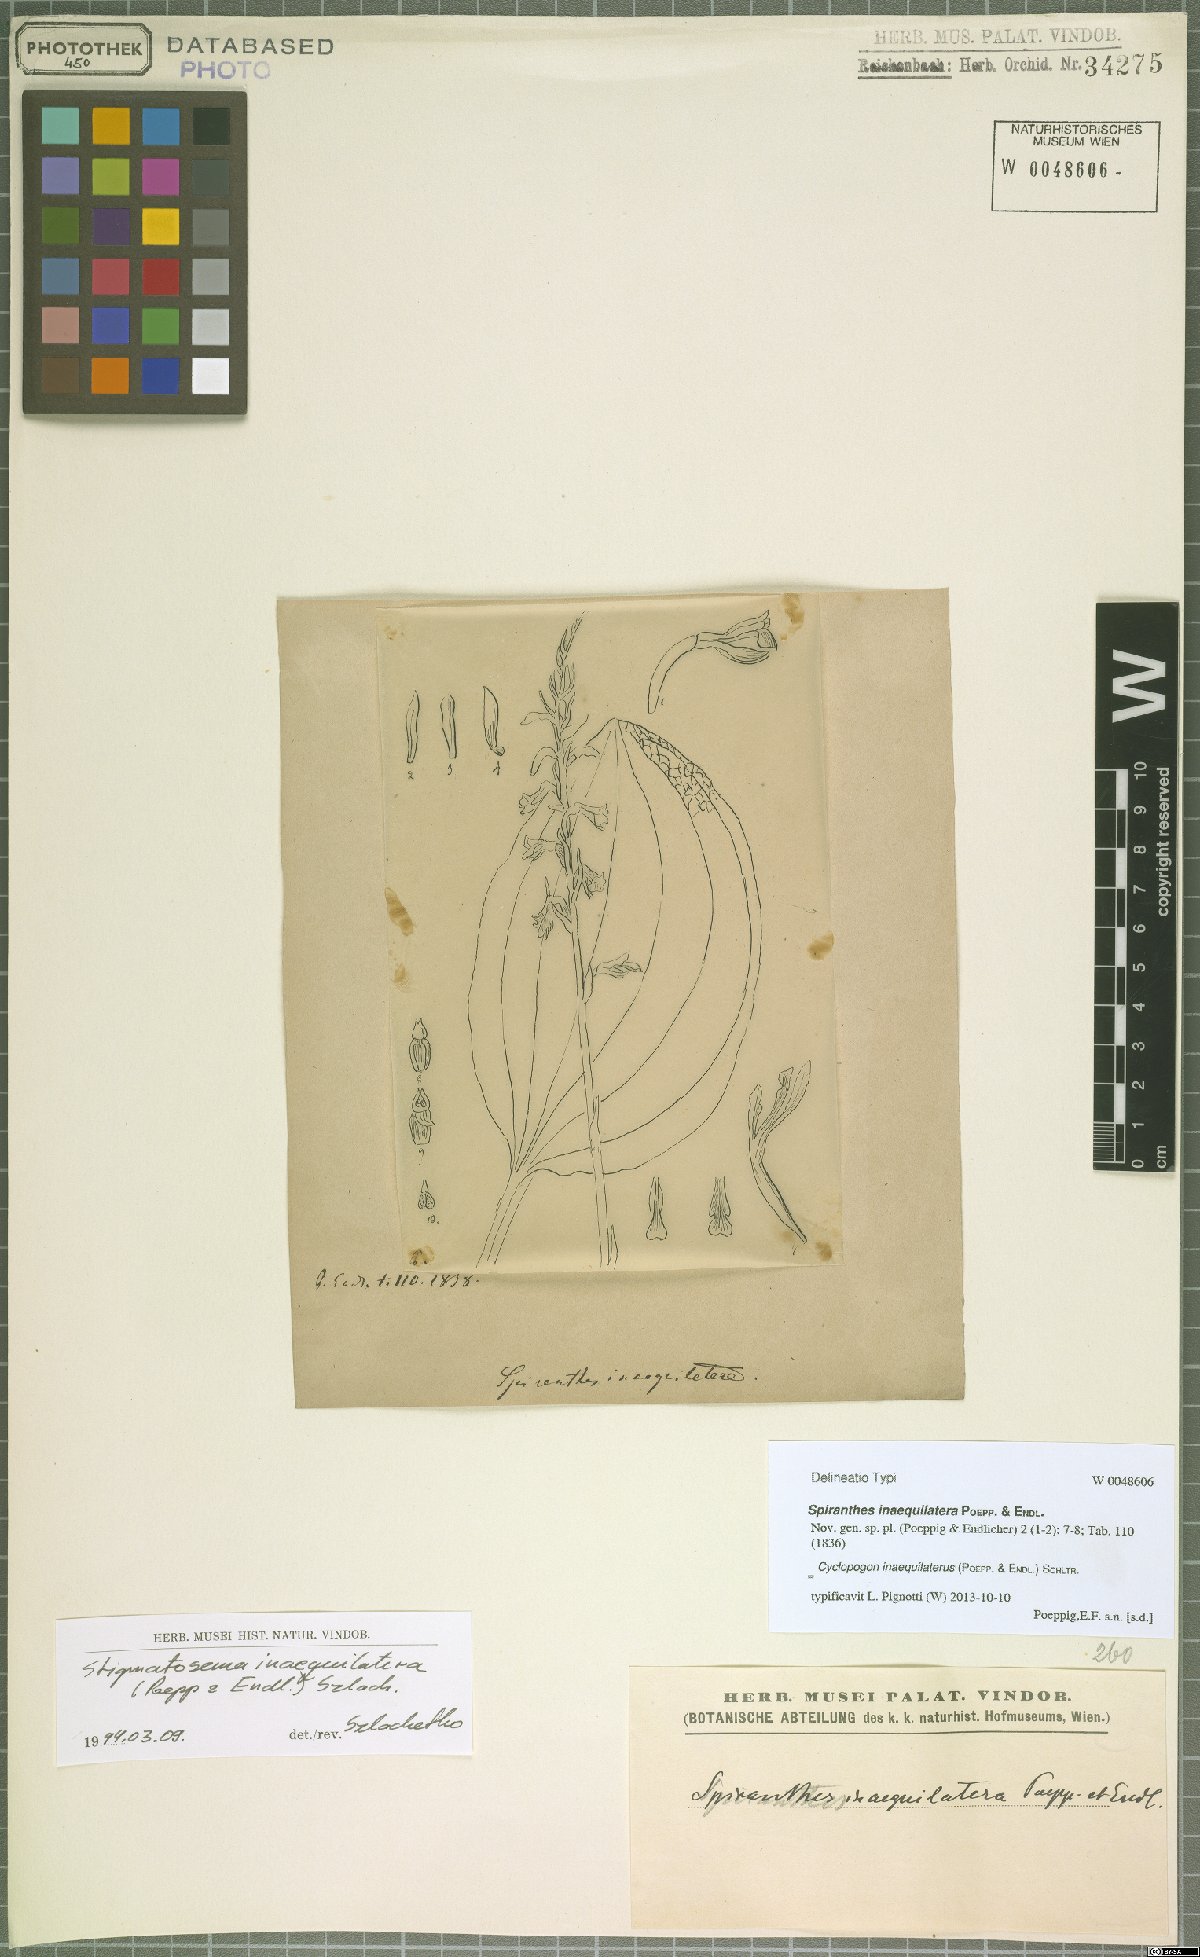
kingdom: Plantae
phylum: Tracheophyta
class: Liliopsida
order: Asparagales
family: Orchidaceae
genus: Cyclopogon
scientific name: Cyclopogon inaequilaterus
